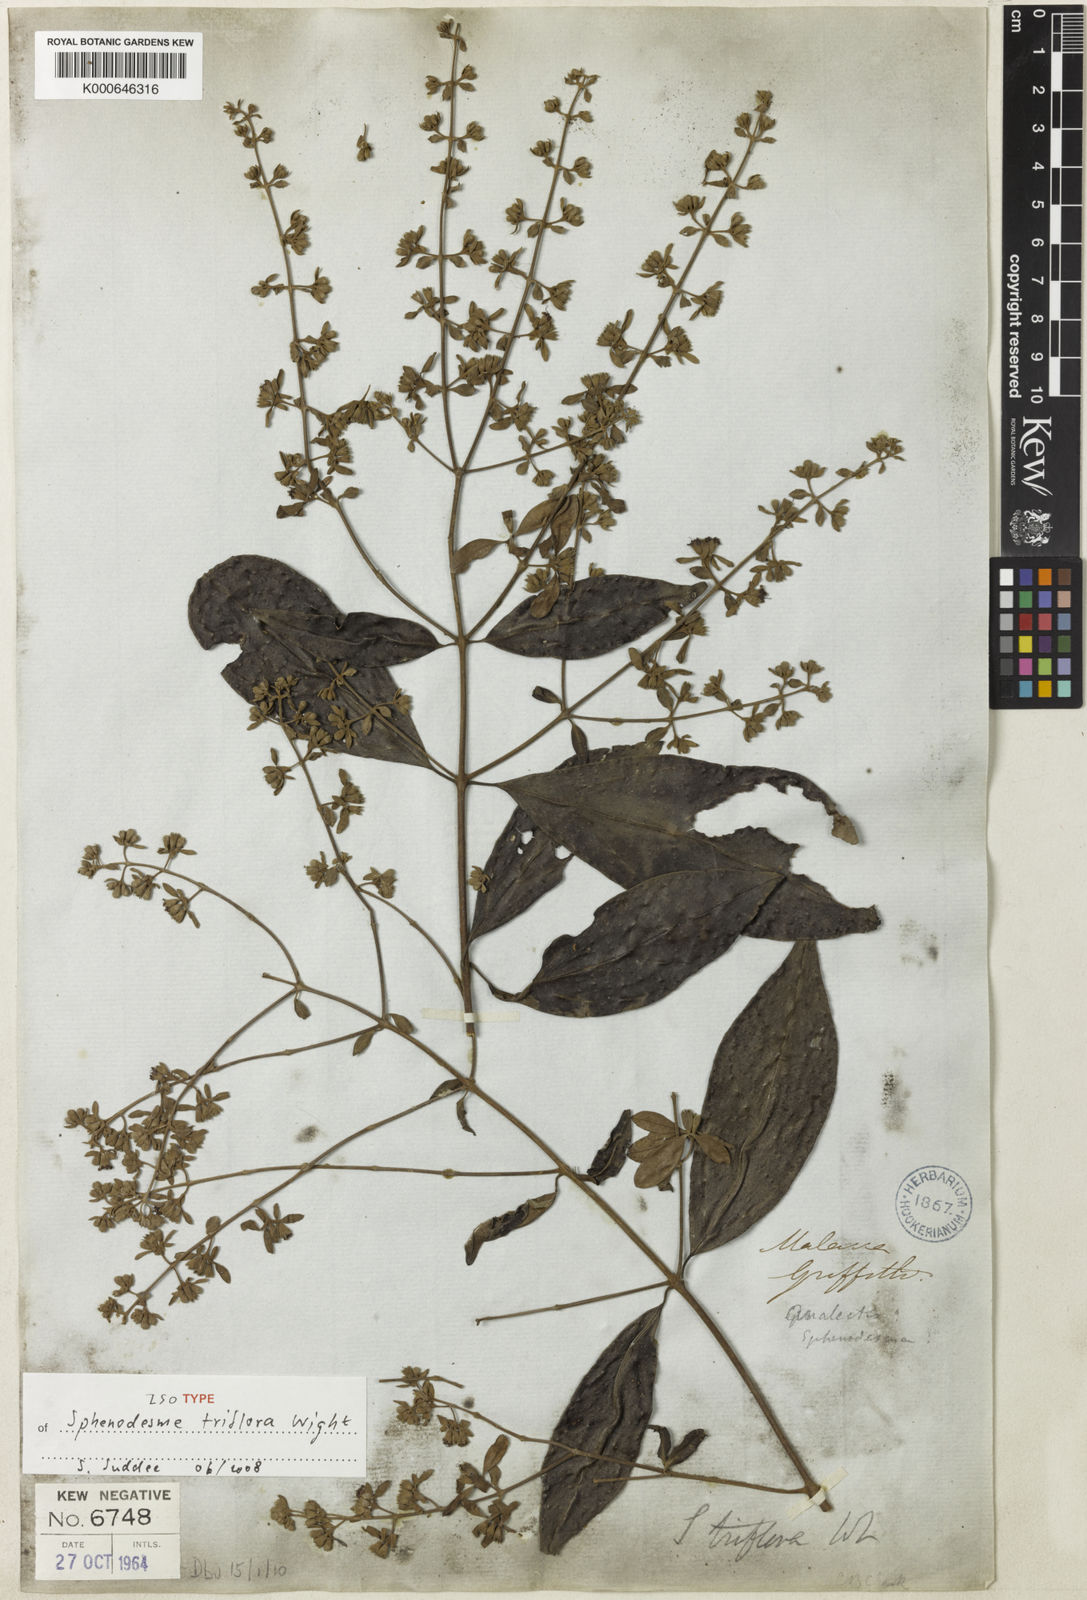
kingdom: Plantae
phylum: Tracheophyta
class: Magnoliopsida
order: Lamiales
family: Lamiaceae
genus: Sphenodesme
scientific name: Sphenodesme triflora
